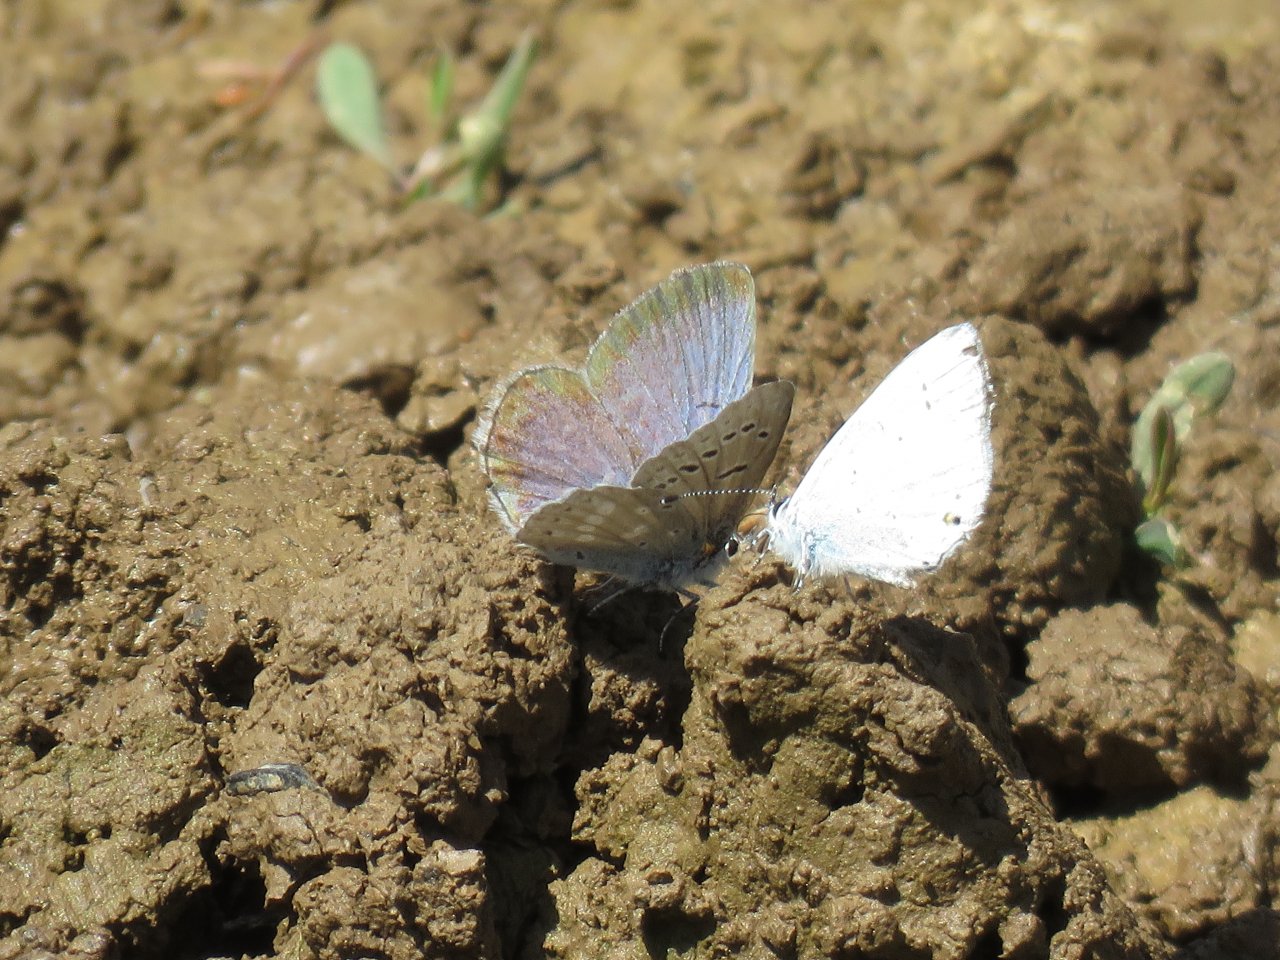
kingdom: Animalia
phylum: Arthropoda
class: Insecta
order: Lepidoptera
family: Lycaenidae
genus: Icaricia
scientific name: Icaricia icarioides
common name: Boisduval's Blue
